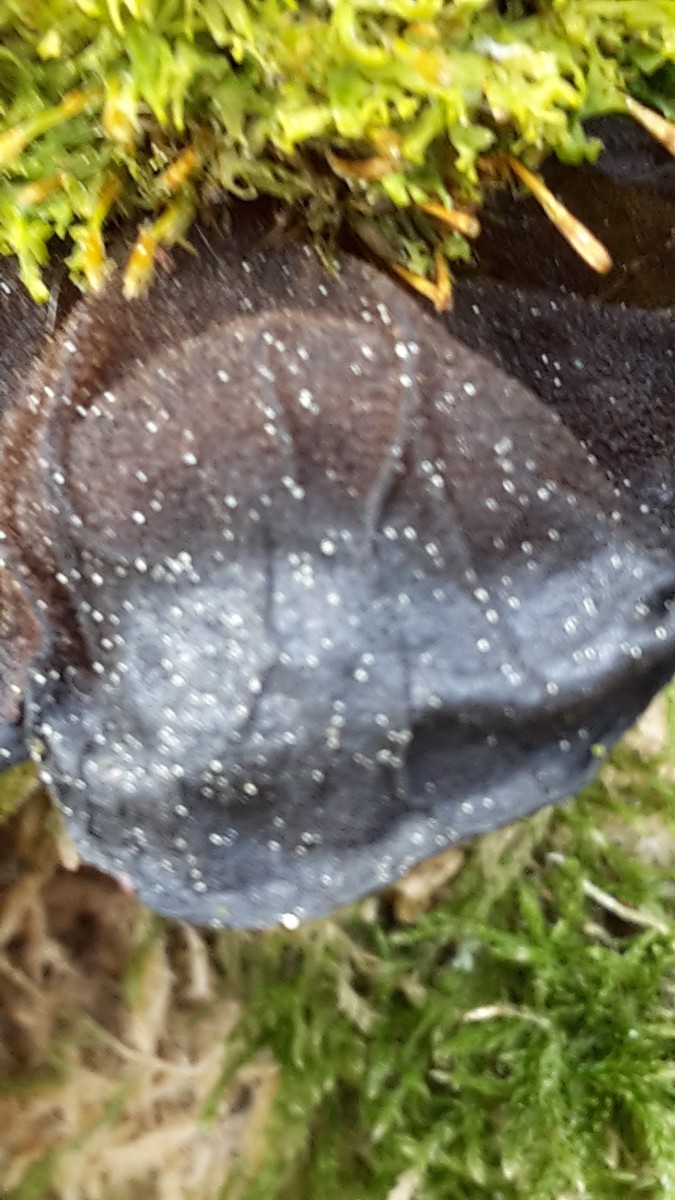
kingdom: Fungi
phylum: Basidiomycota
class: Agaricomycetes
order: Auriculariales
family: Auriculariaceae
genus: Exidia
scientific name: Exidia glandulosa
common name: ege-bævretop
